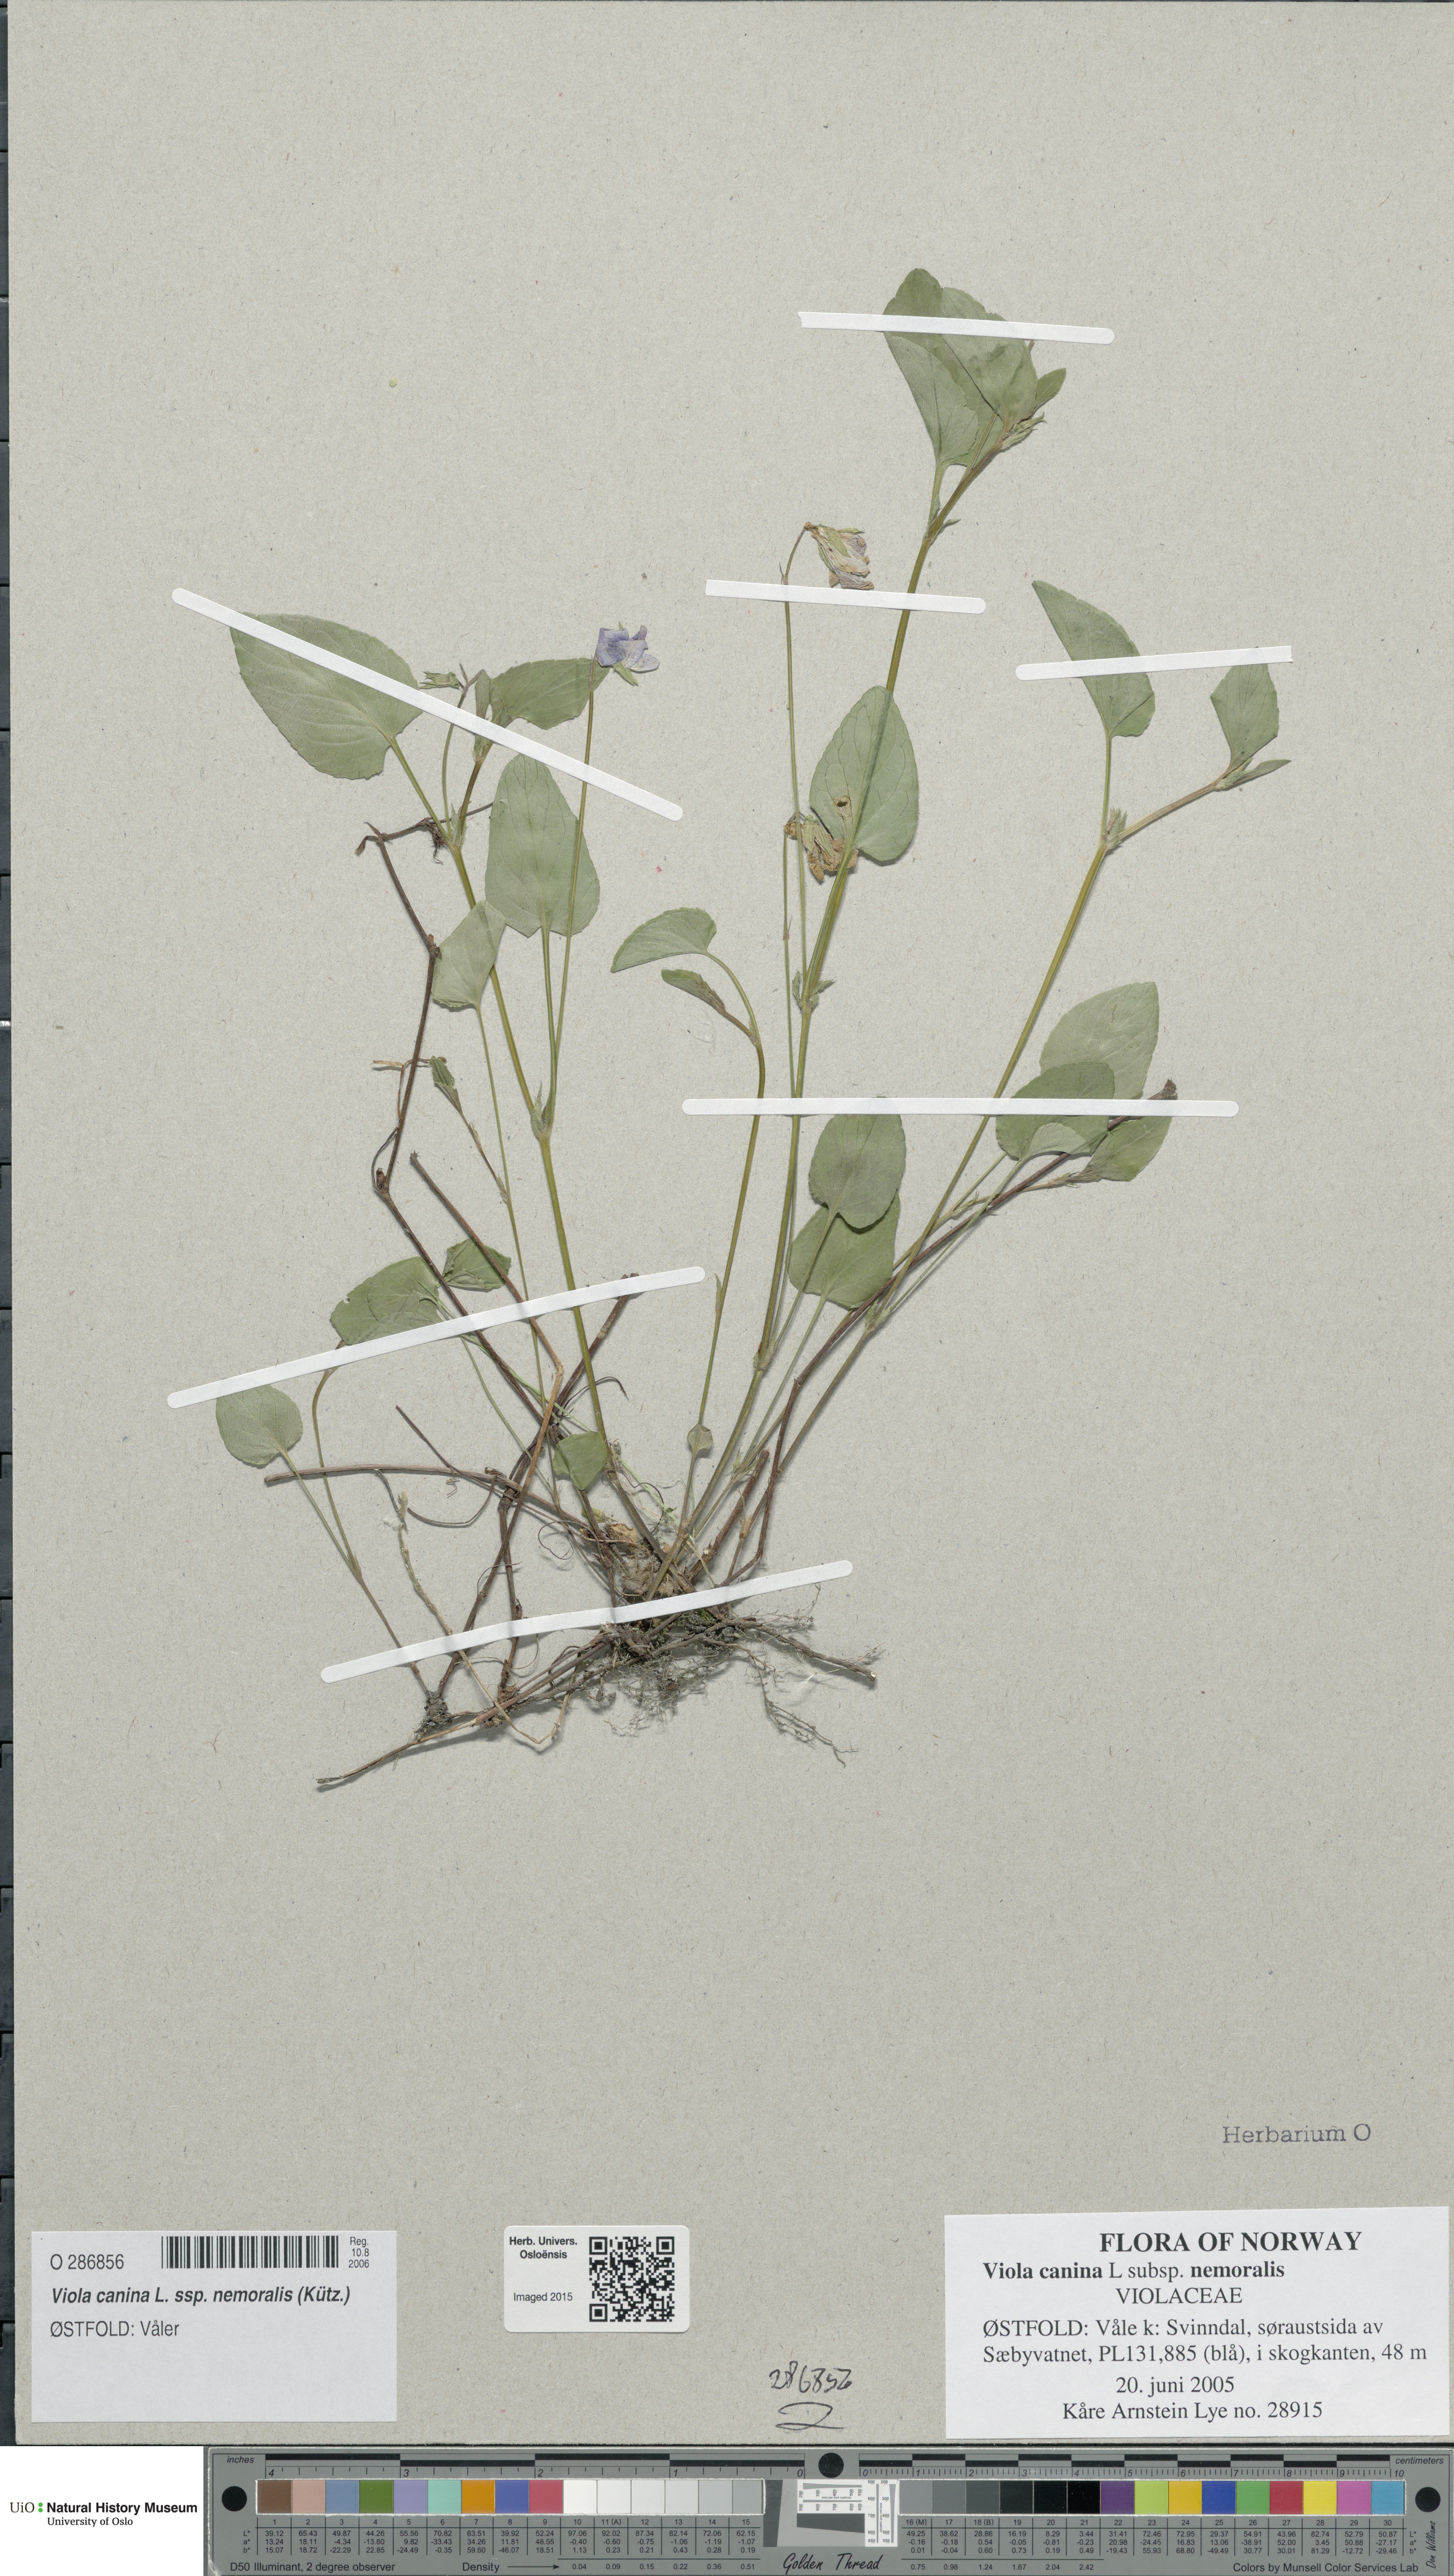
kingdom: Plantae
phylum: Tracheophyta
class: Magnoliopsida
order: Malpighiales
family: Violaceae
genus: Viola
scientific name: Viola ruppii
